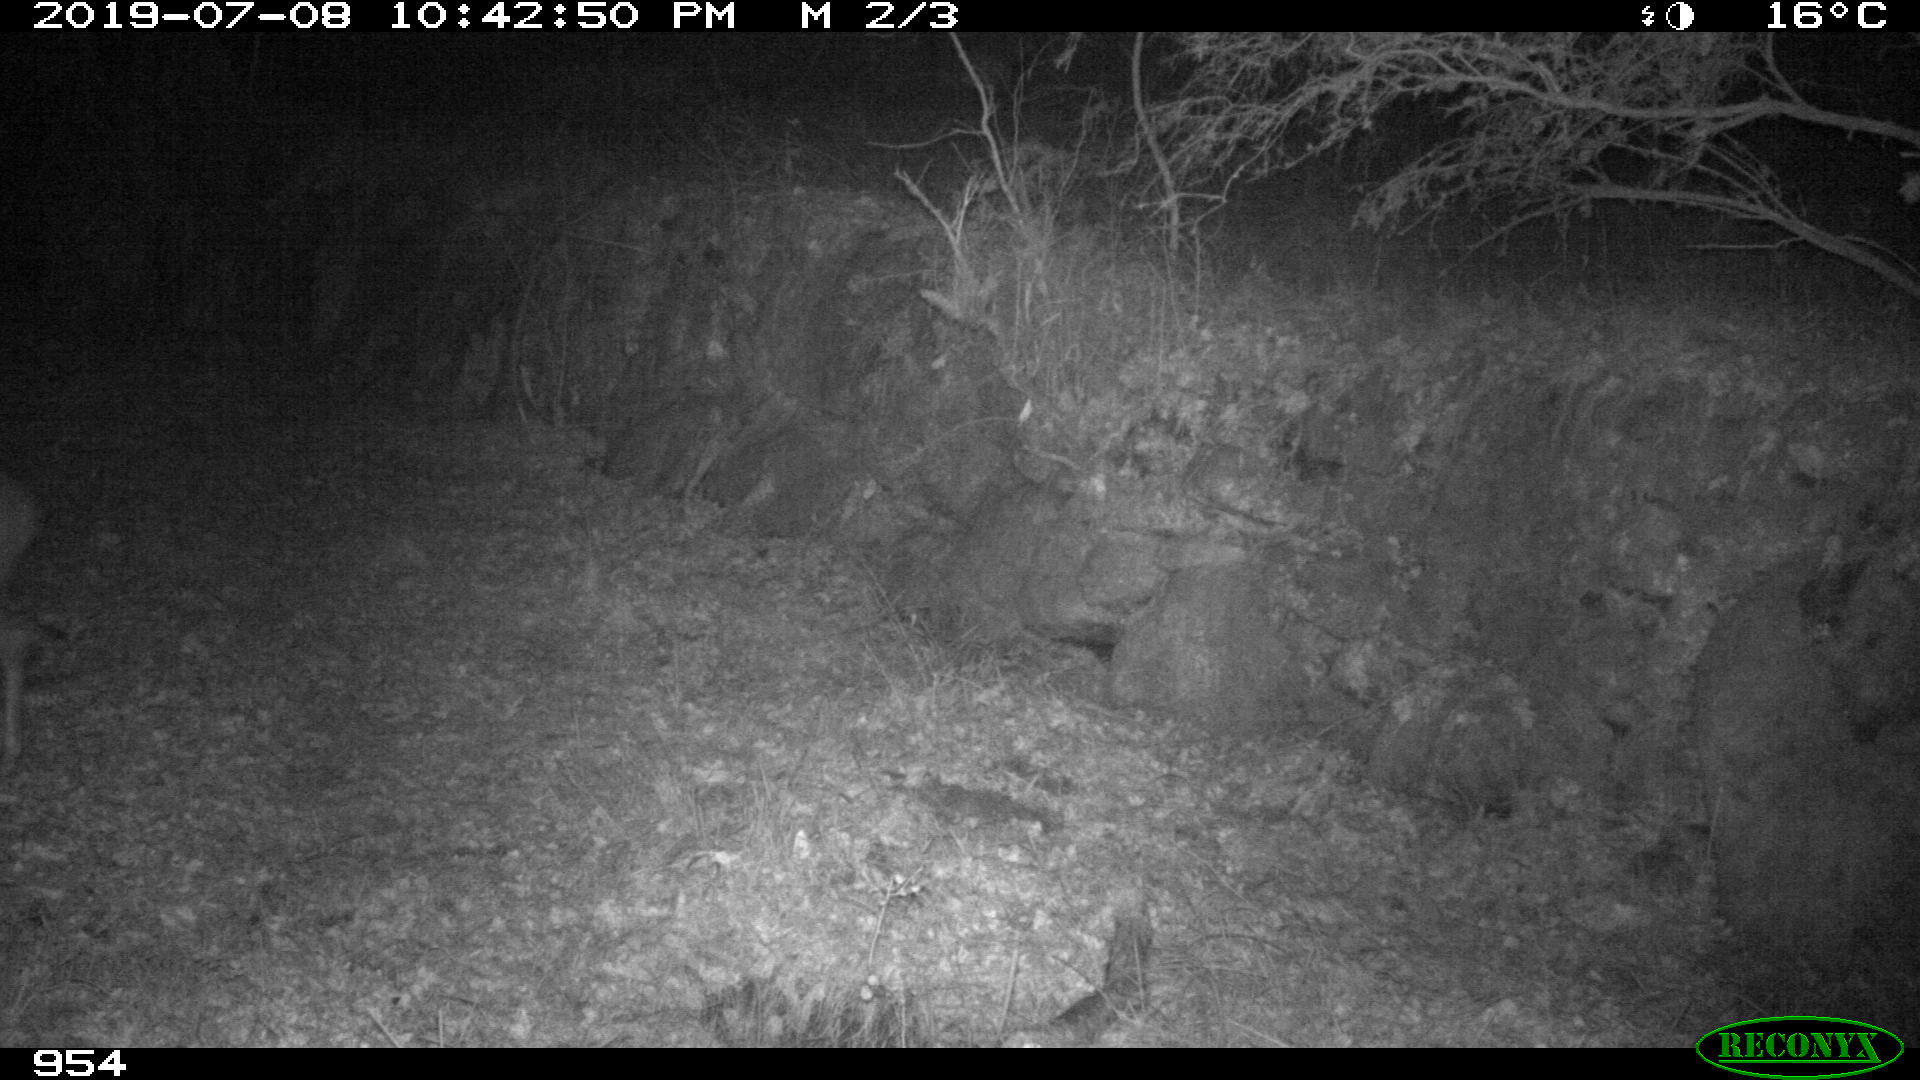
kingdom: Animalia
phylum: Chordata
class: Mammalia
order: Artiodactyla
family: Cervidae
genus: Capreolus
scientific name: Capreolus capreolus
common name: Western roe deer
